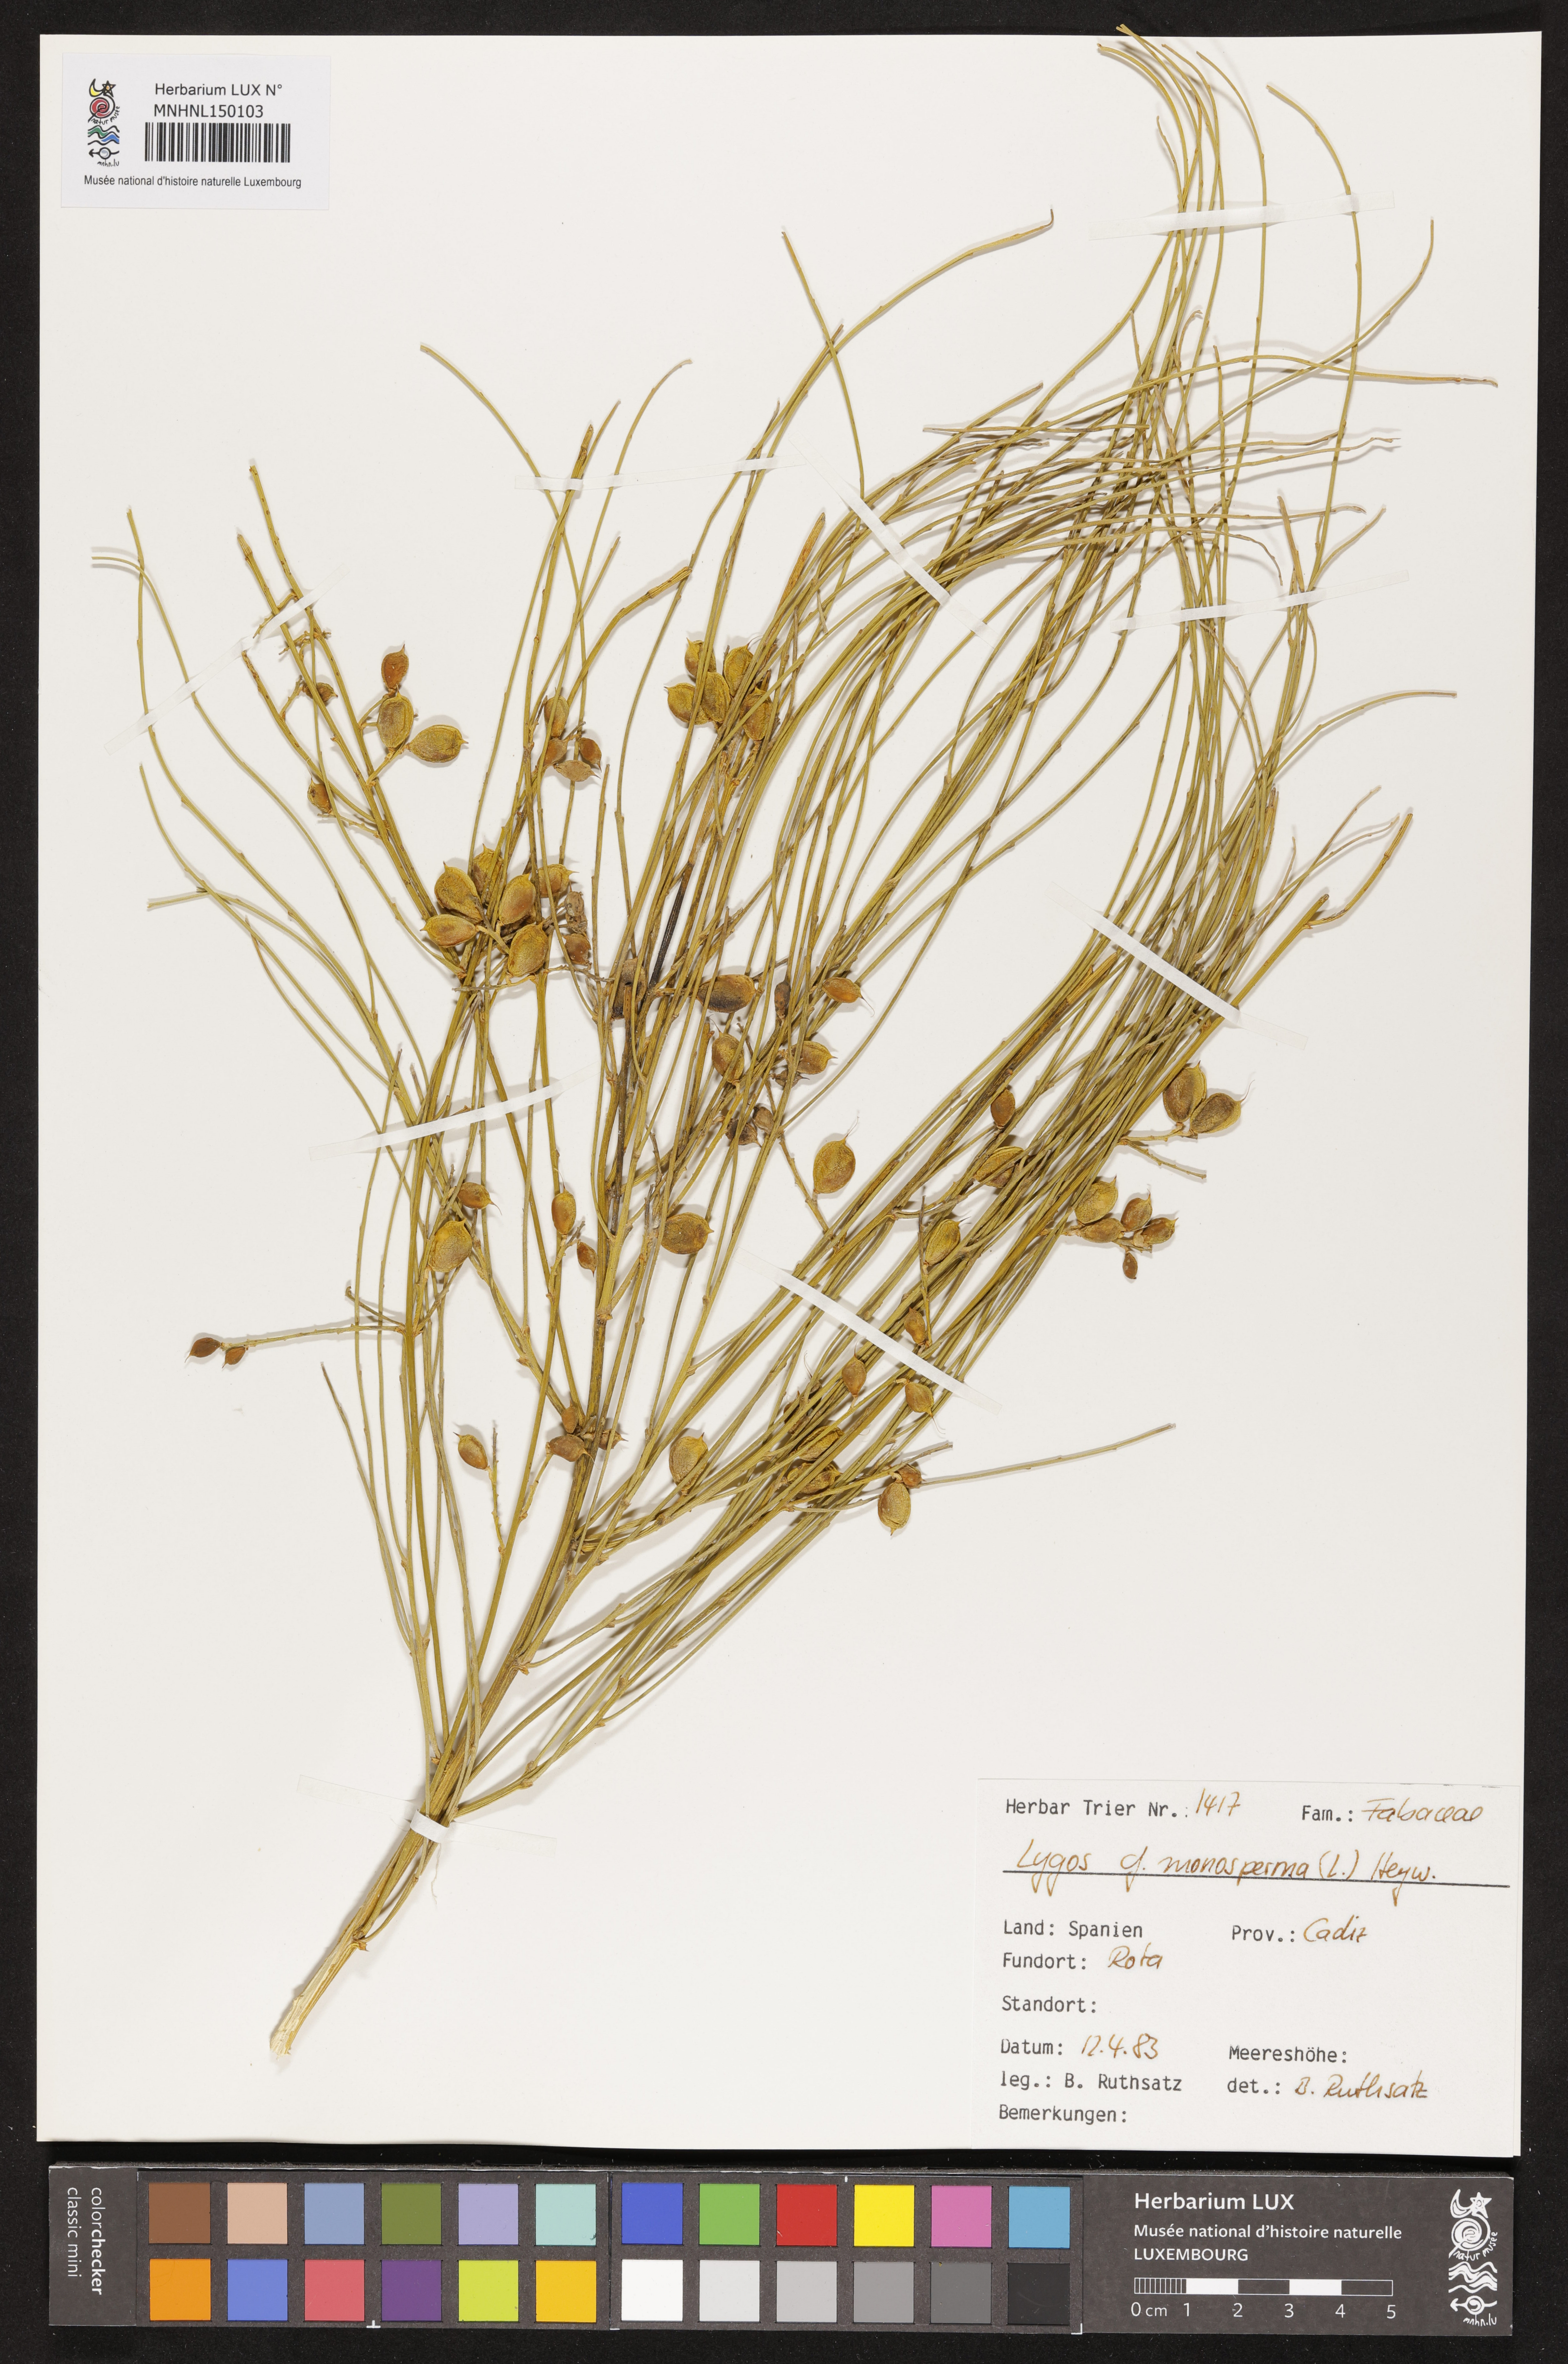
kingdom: Plantae
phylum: Tracheophyta
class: Magnoliopsida
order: Fabales
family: Fabaceae
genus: Retama
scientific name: Retama monosperma
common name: Bridal broom
